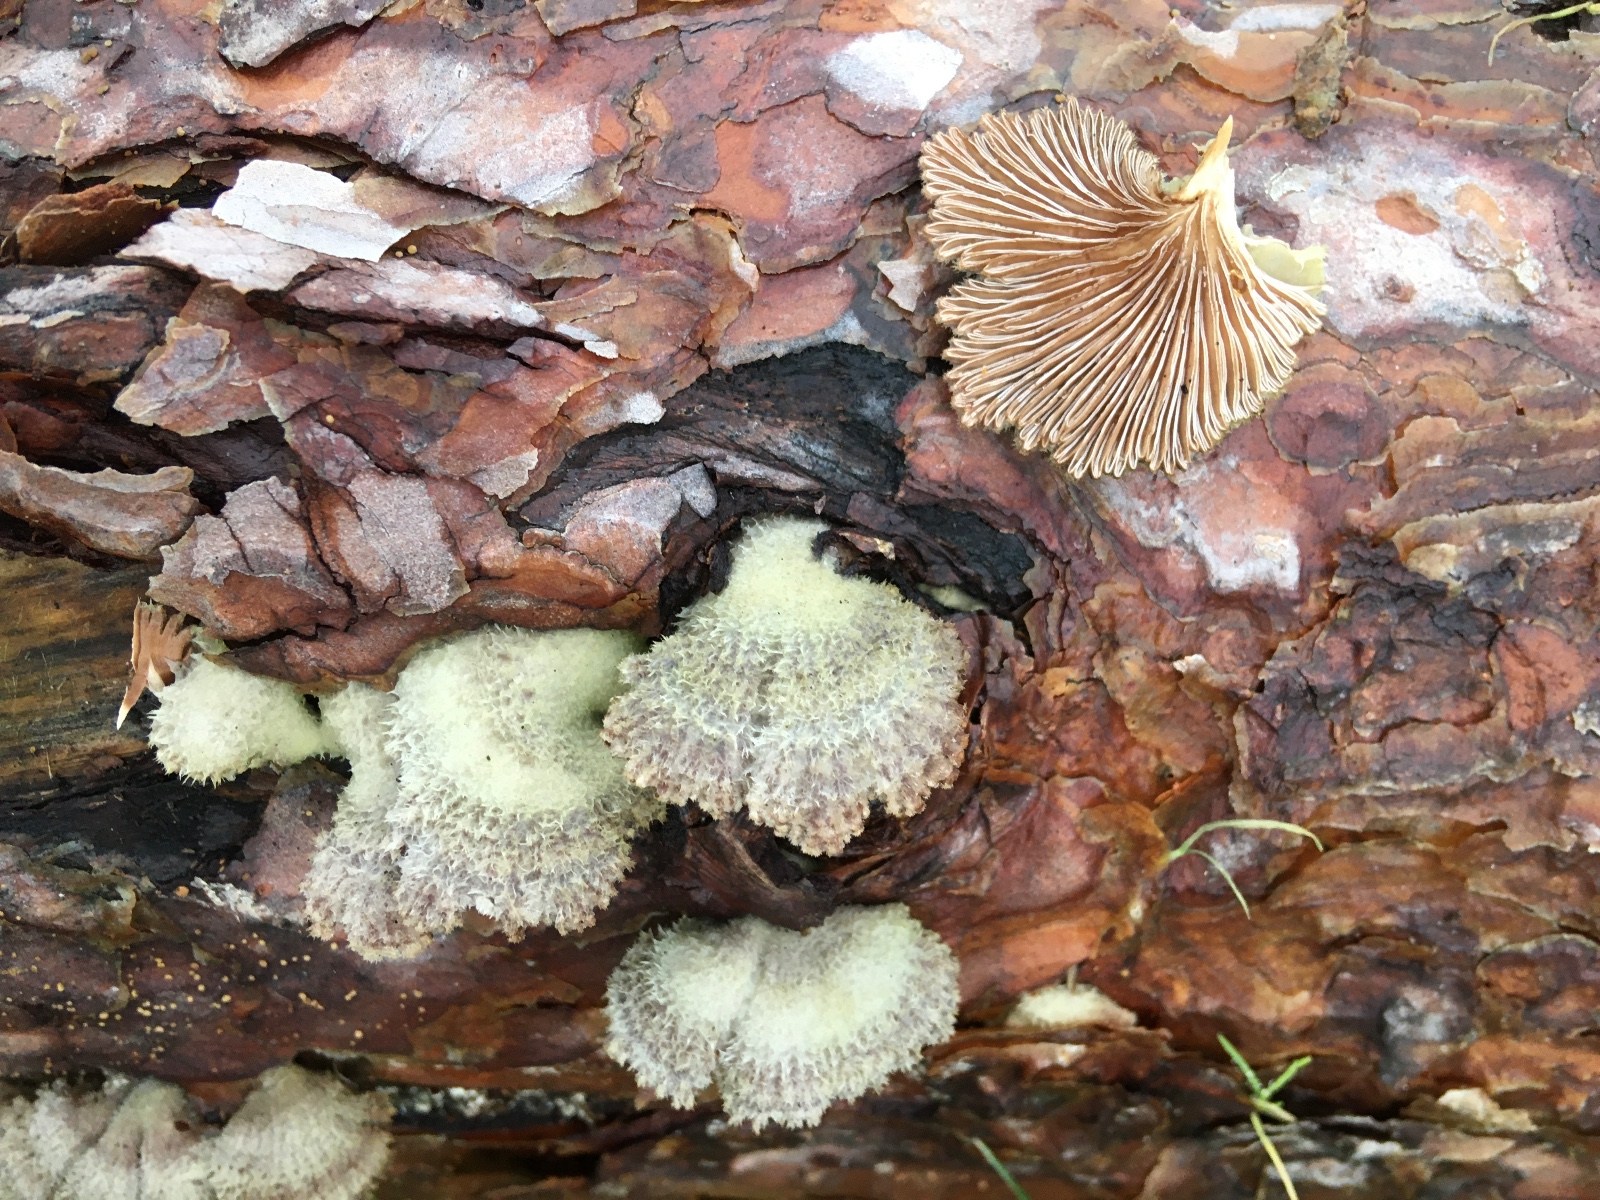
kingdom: Fungi
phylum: Basidiomycota
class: Agaricomycetes
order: Agaricales
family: Schizophyllaceae
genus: Schizophyllum
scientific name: Schizophyllum commune
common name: kløvblad
